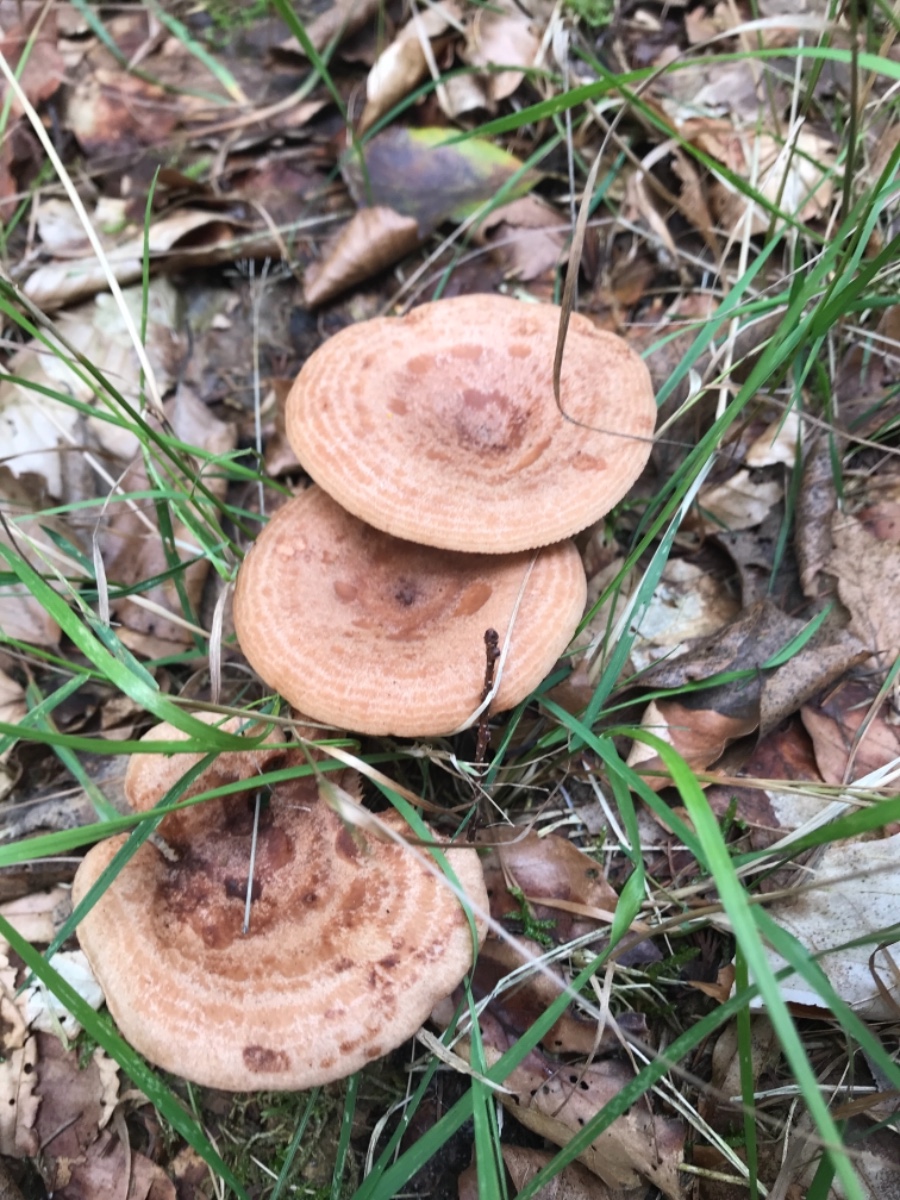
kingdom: Fungi
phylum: Basidiomycota
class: Agaricomycetes
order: Russulales
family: Russulaceae
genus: Lactarius
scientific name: Lactarius quietus
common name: ege-mælkehat
